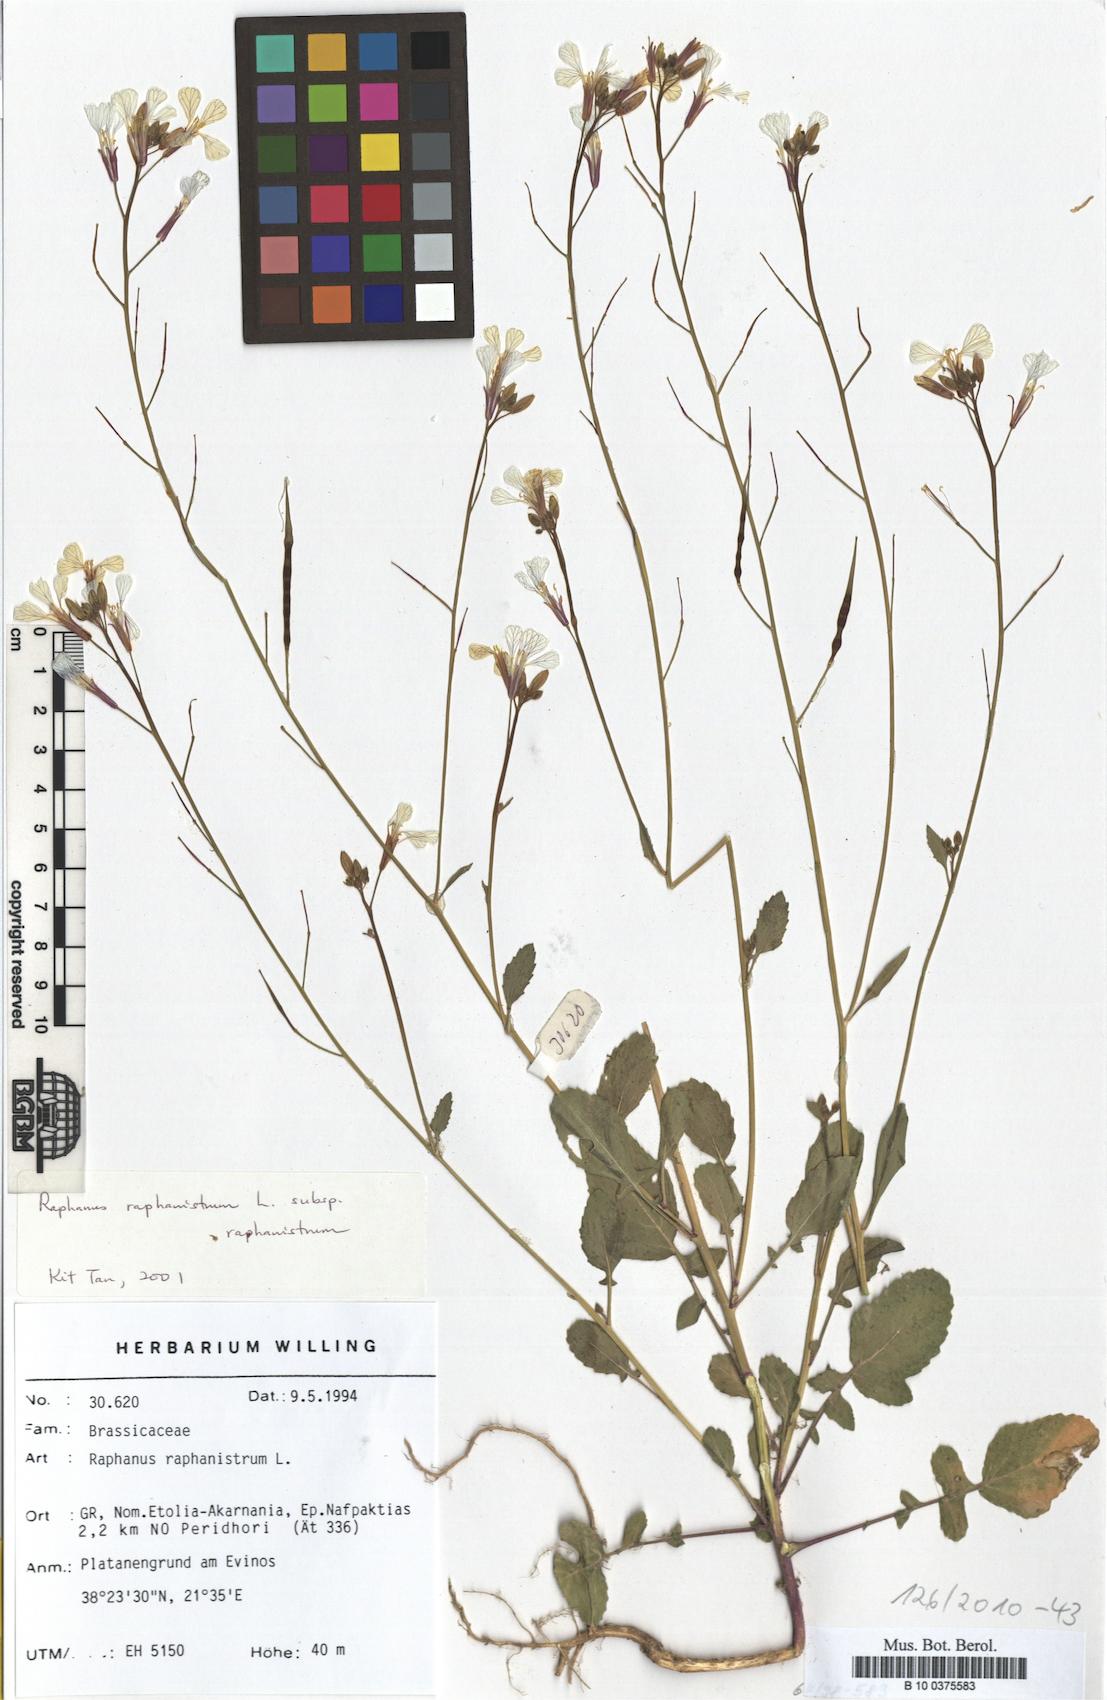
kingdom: Plantae
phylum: Tracheophyta
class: Magnoliopsida
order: Brassicales
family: Brassicaceae
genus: Raphanus
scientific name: Raphanus raphanistrum
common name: Wild radish
